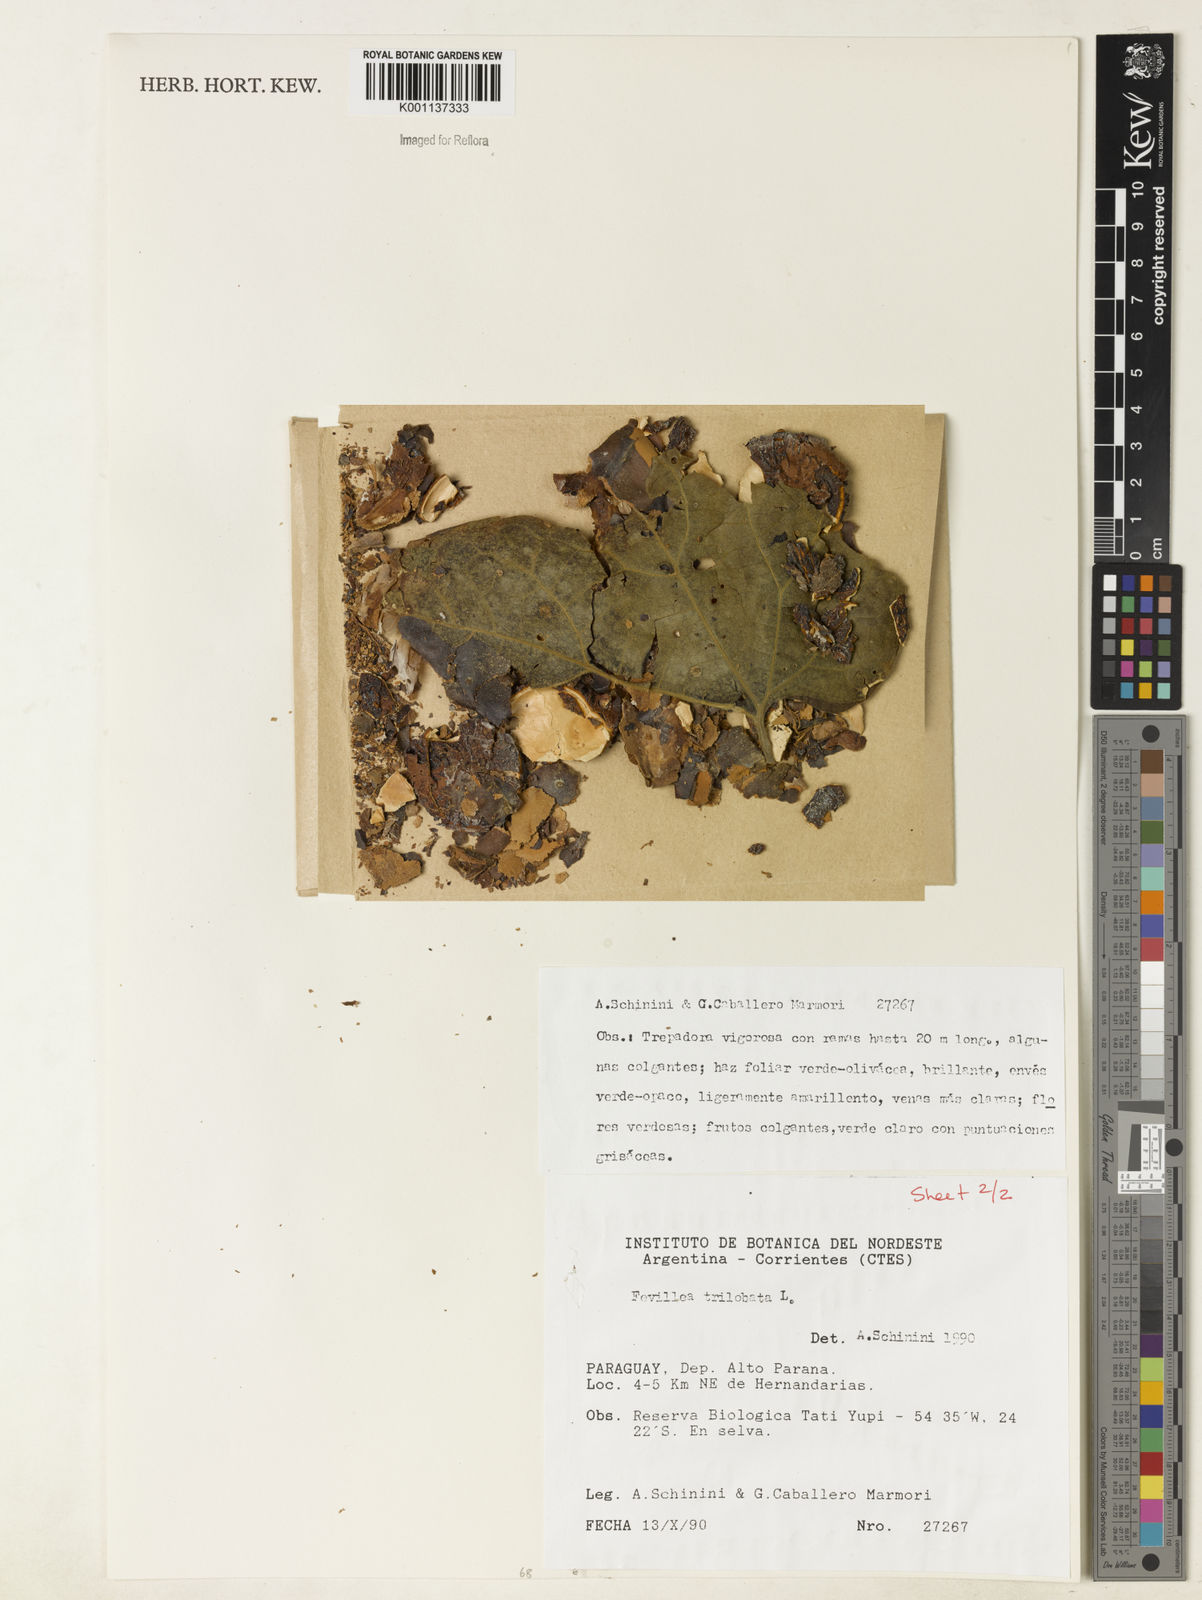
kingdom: Plantae
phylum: Tracheophyta
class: Magnoliopsida
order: Cucurbitales
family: Cucurbitaceae
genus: Fevillea
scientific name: Fevillea trilobata
